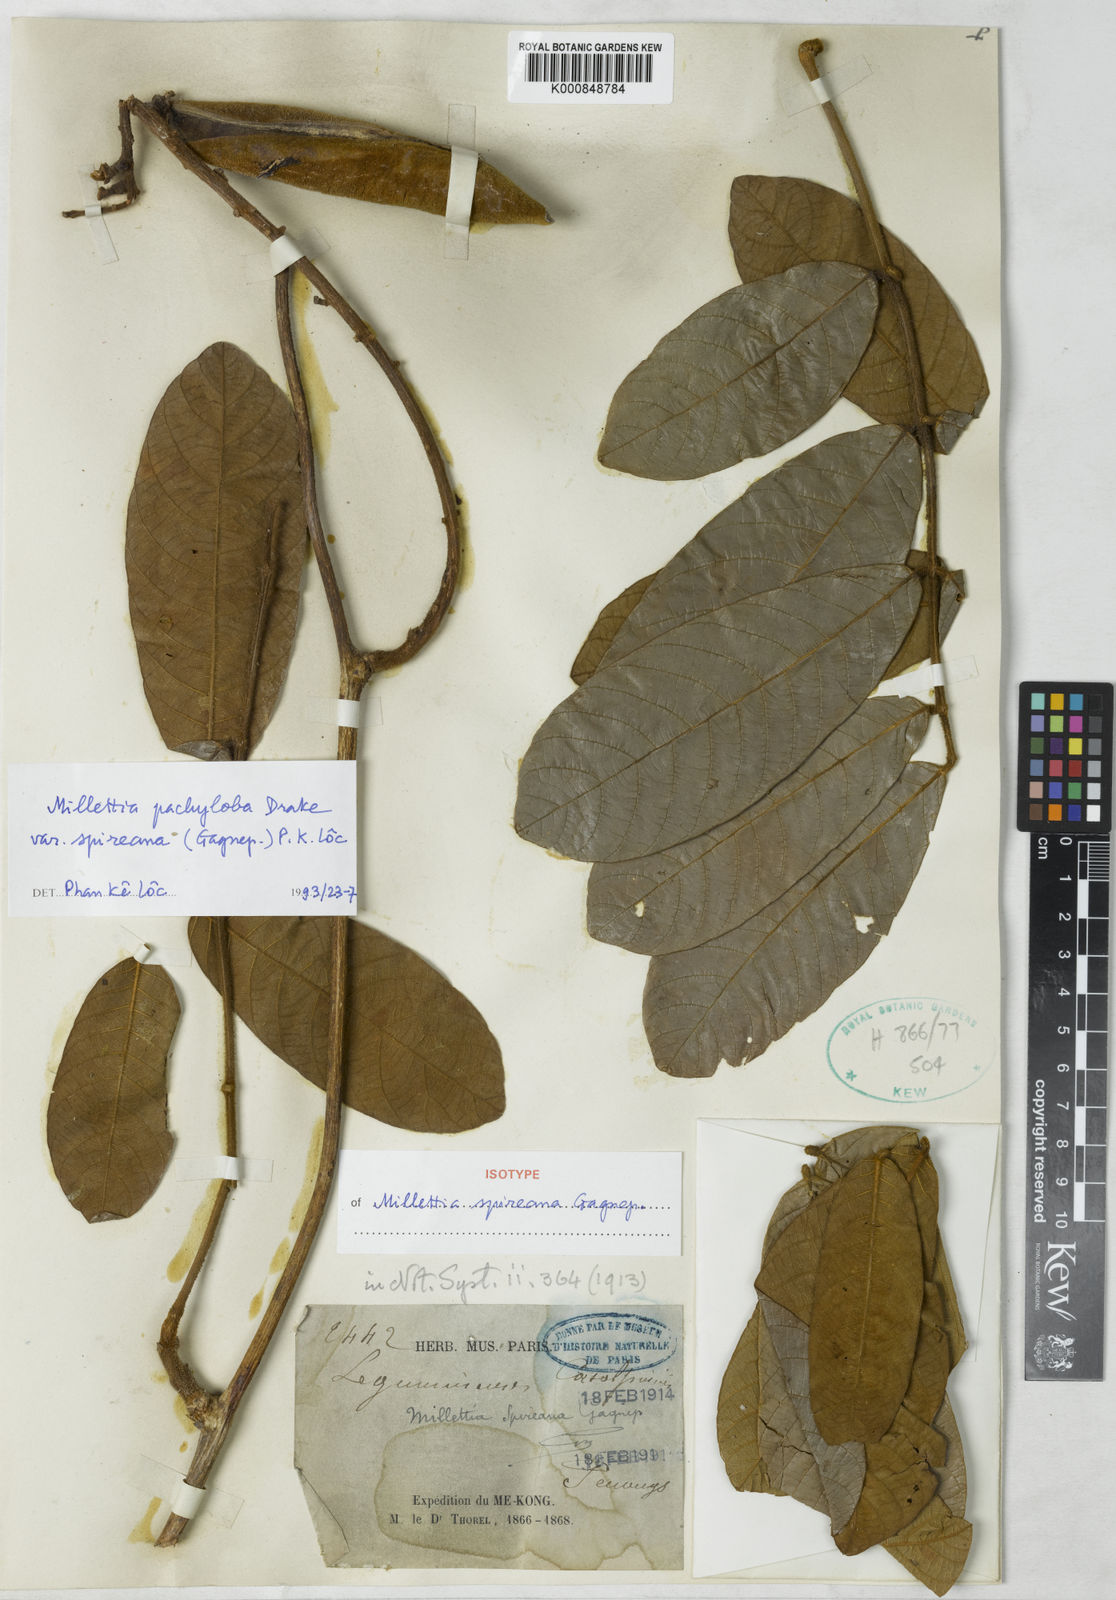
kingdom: Plantae
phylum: Tracheophyta
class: Magnoliopsida
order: Fabales
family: Fabaceae
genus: Millettia
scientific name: Millettia pachyloba
